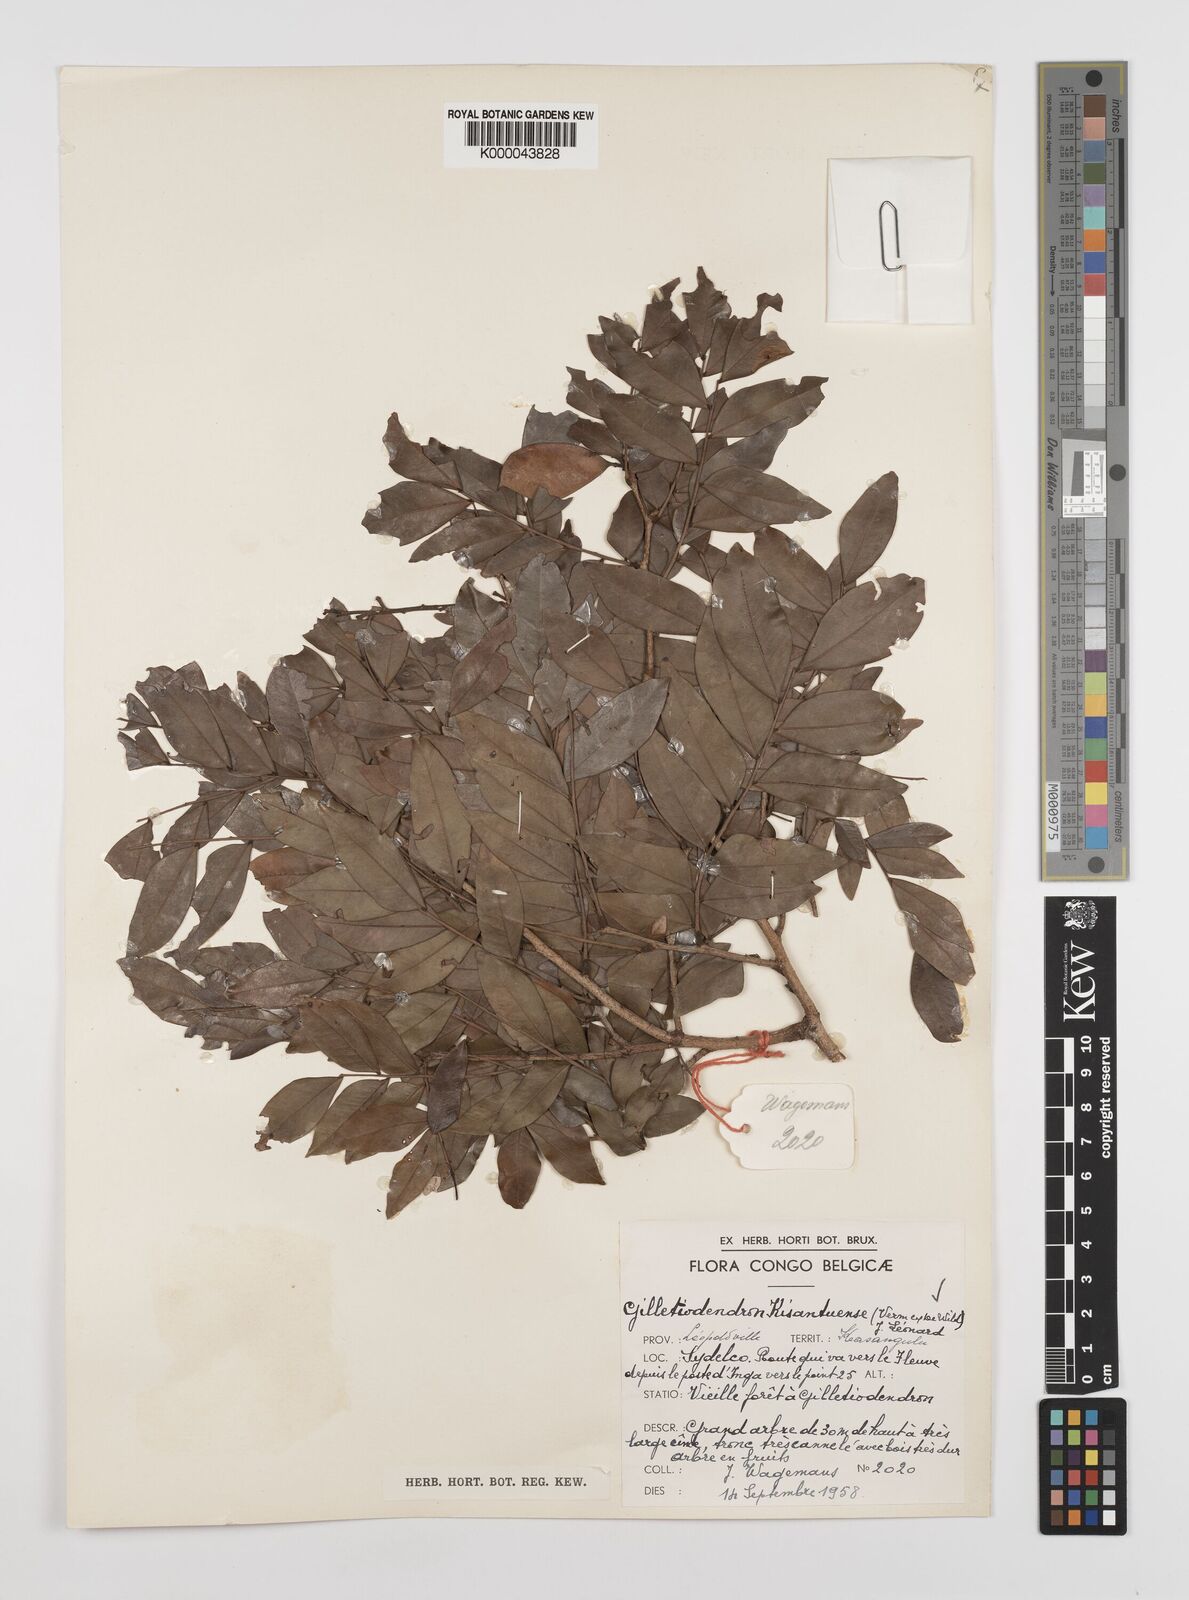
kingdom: Plantae
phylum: Tracheophyta
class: Magnoliopsida
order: Fabales
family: Fabaceae
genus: Guibourtia
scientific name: Guibourtia
